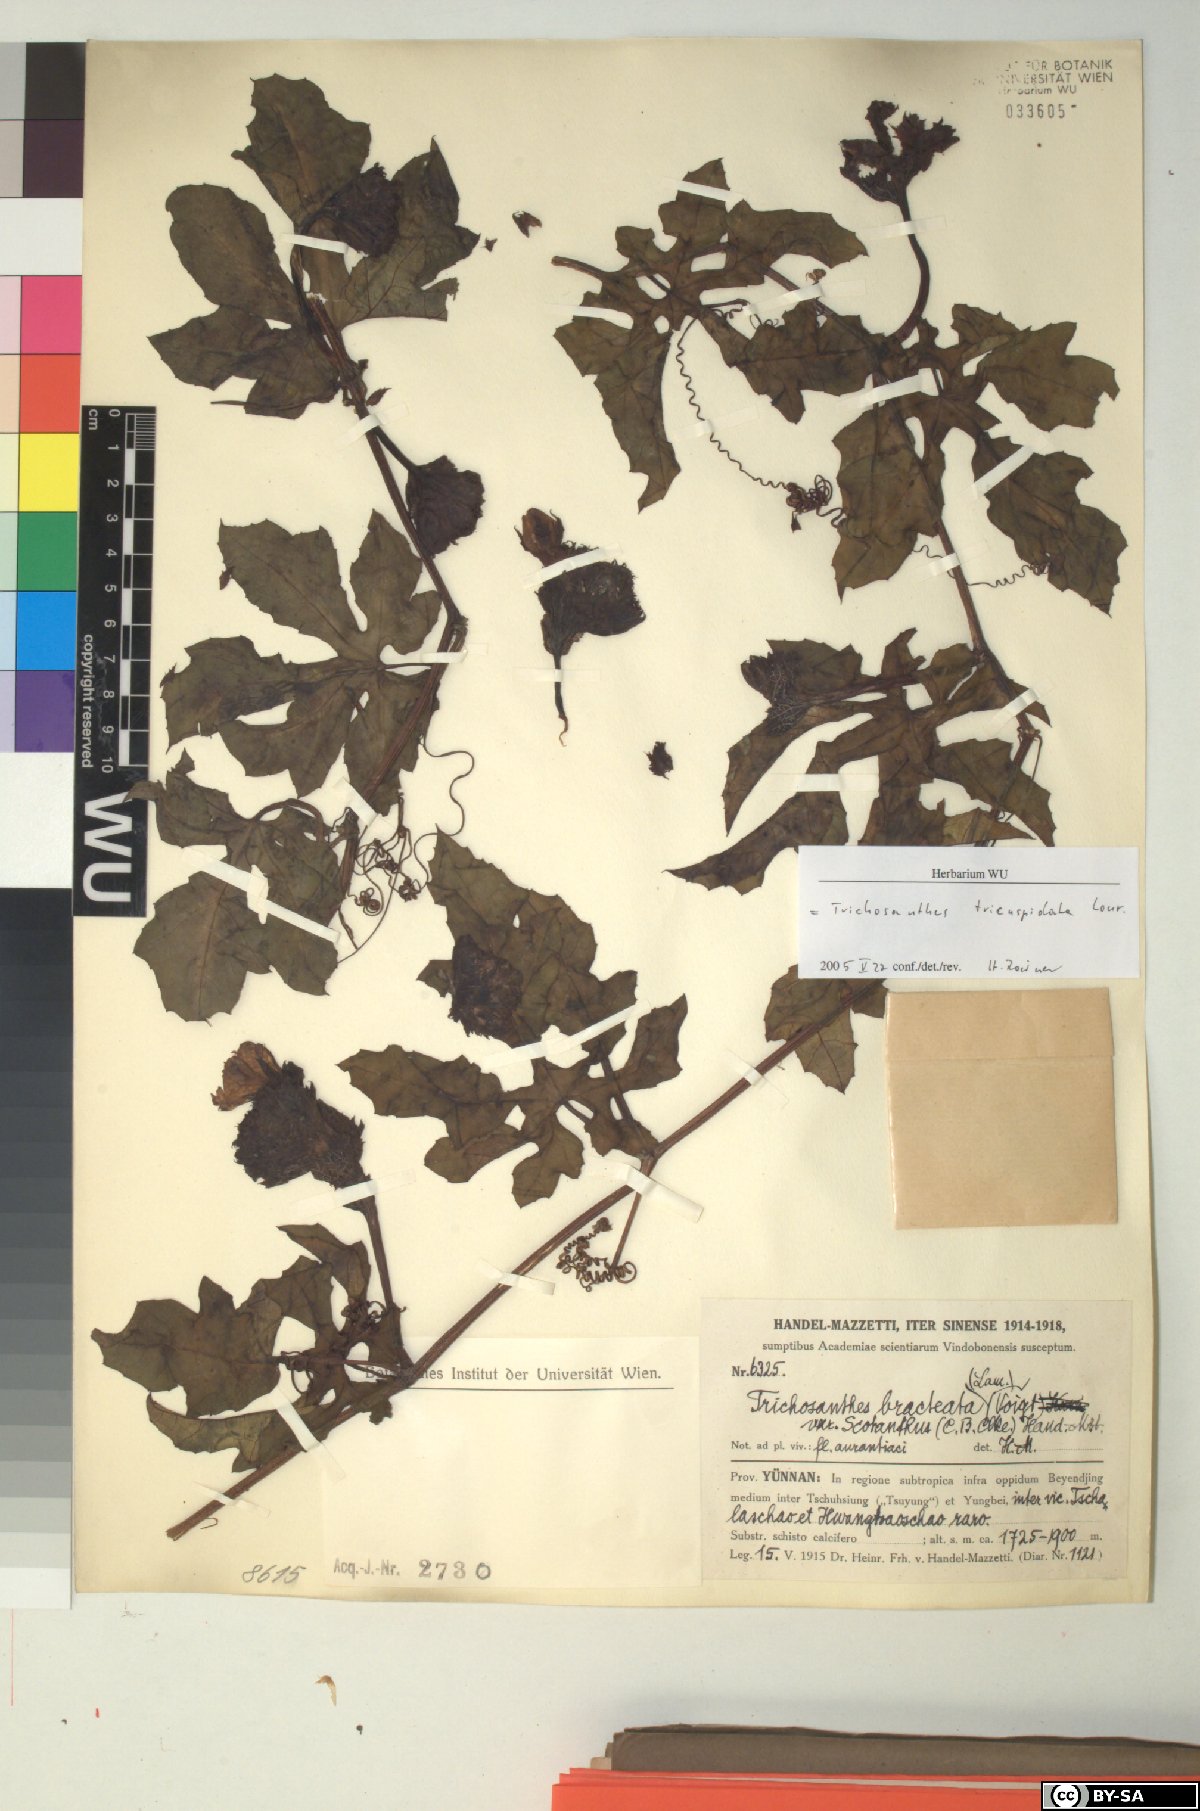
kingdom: Plantae
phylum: Tracheophyta
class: Magnoliopsida
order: Cucurbitales
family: Cucurbitaceae
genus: Trichosanthes
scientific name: Trichosanthes tricuspidata
